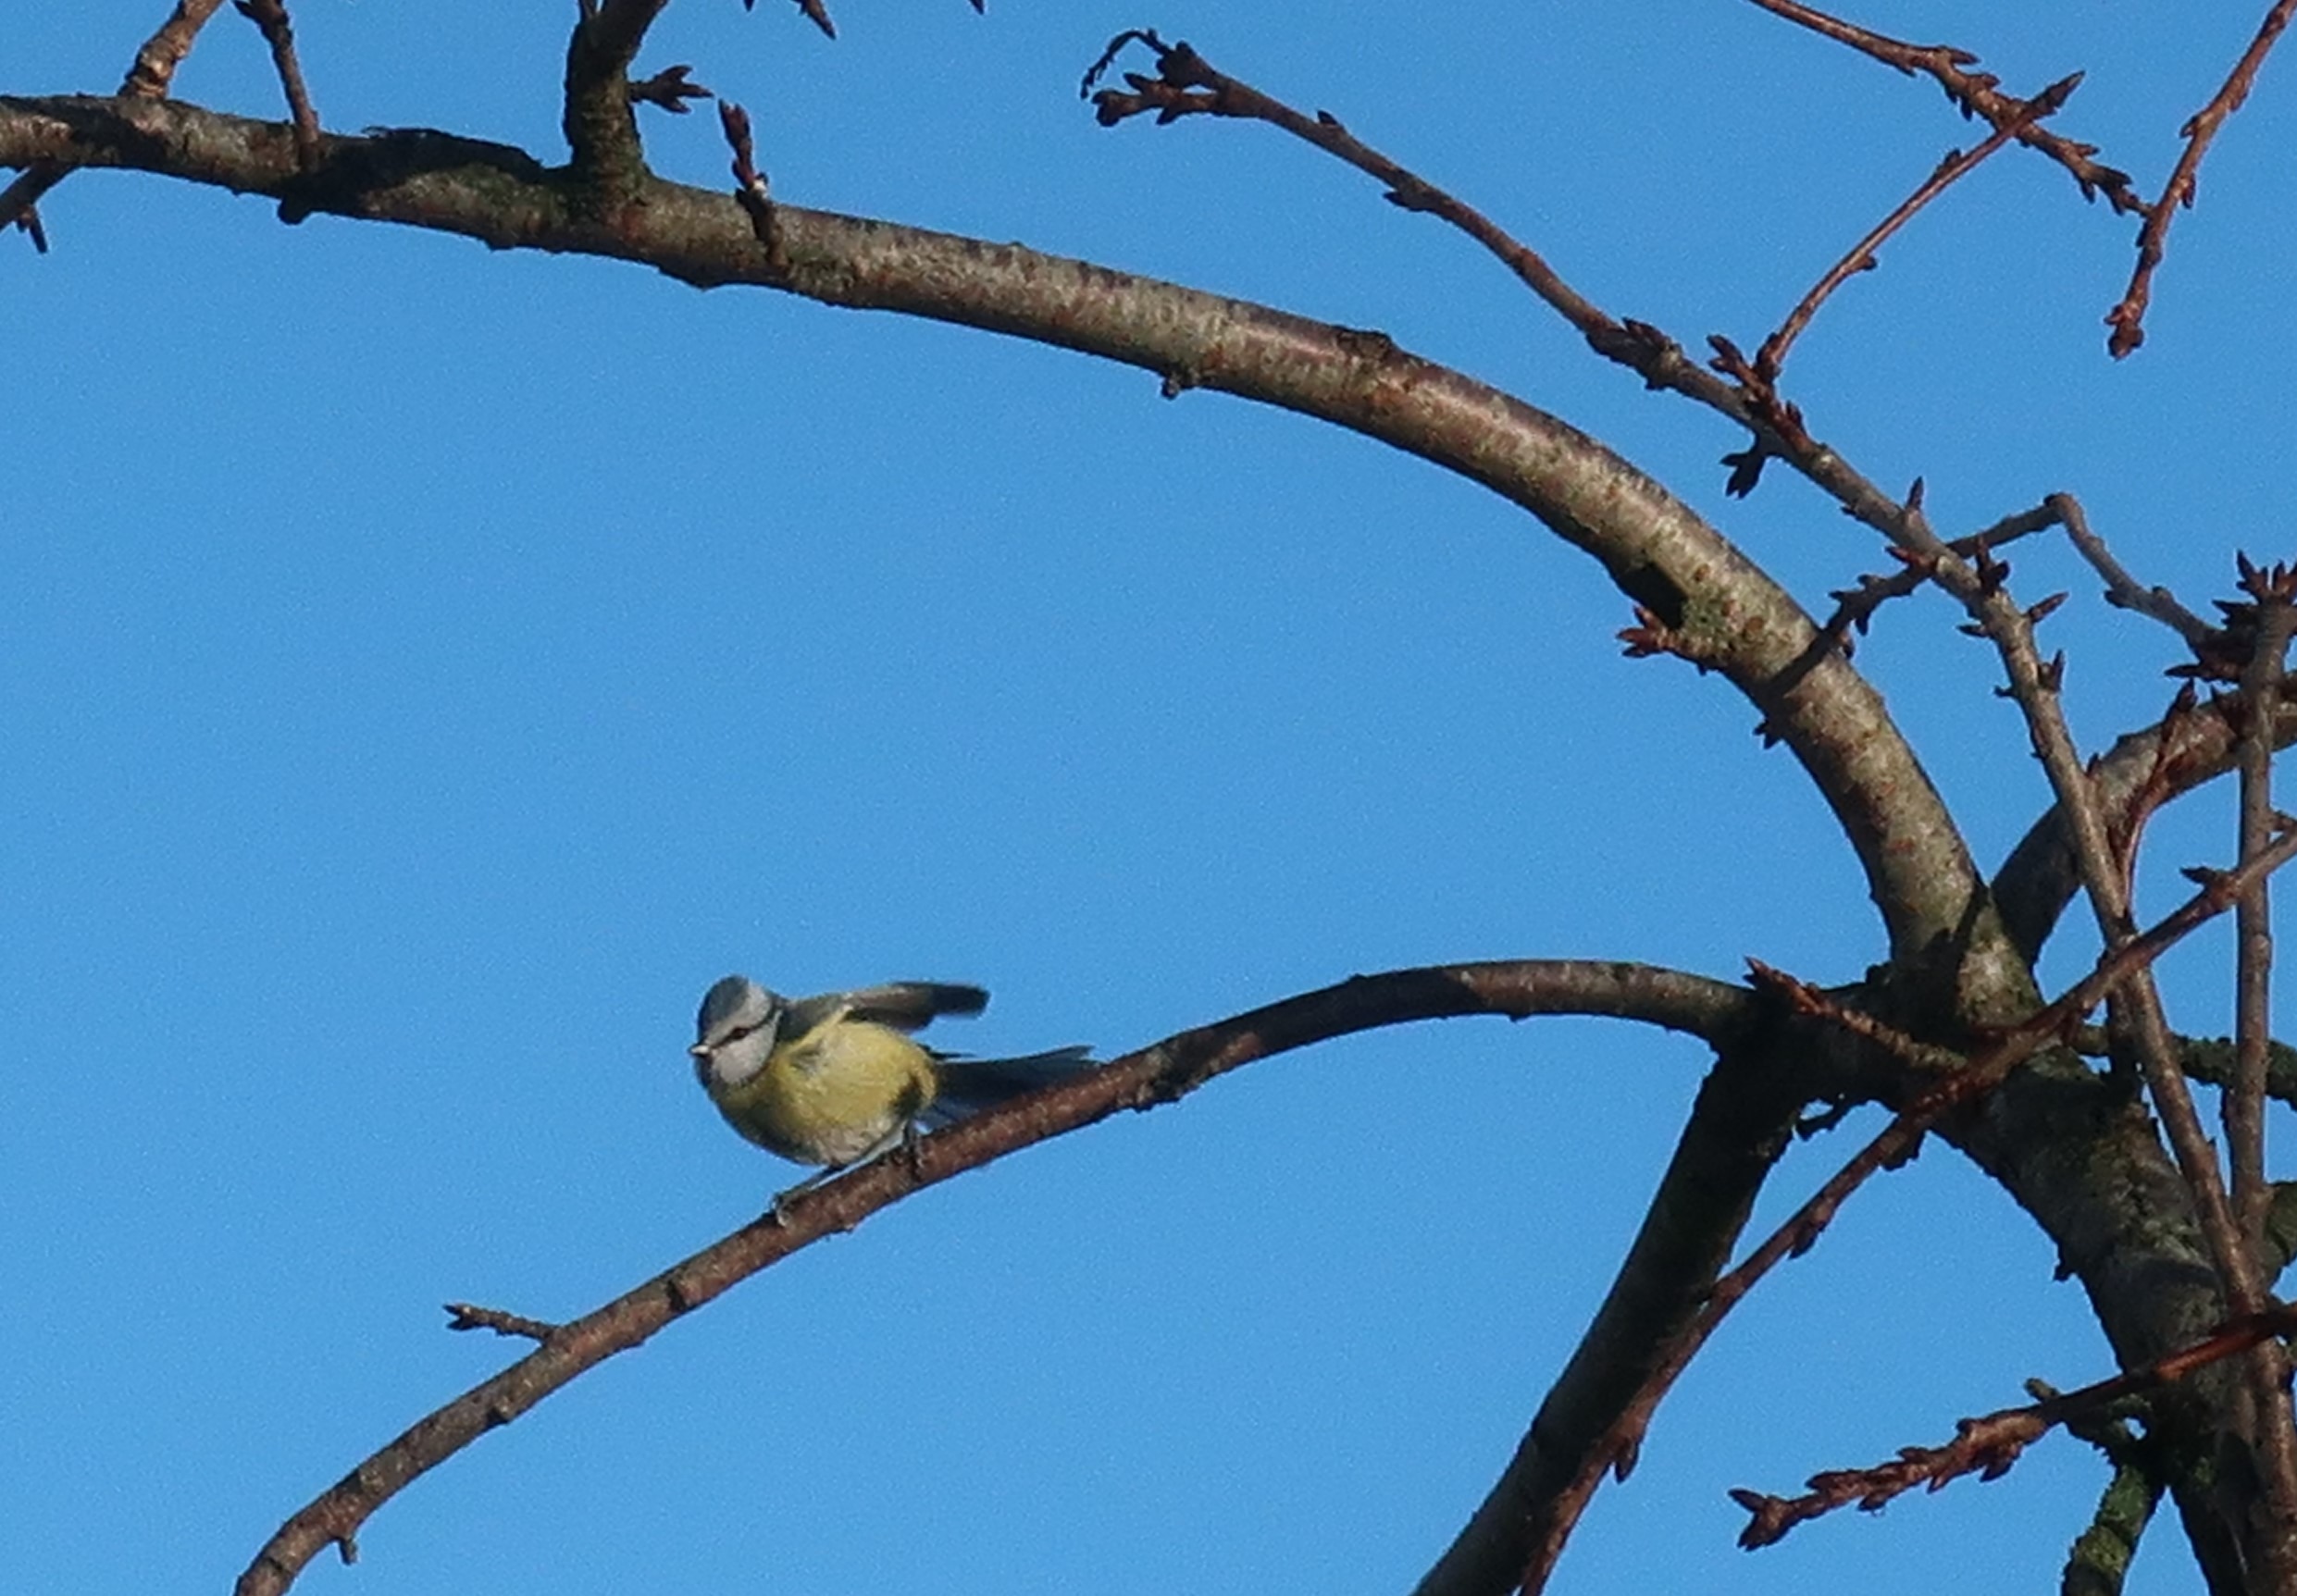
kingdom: Animalia
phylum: Chordata
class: Aves
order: Passeriformes
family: Paridae
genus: Cyanistes
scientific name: Cyanistes caeruleus
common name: Blåmejse
